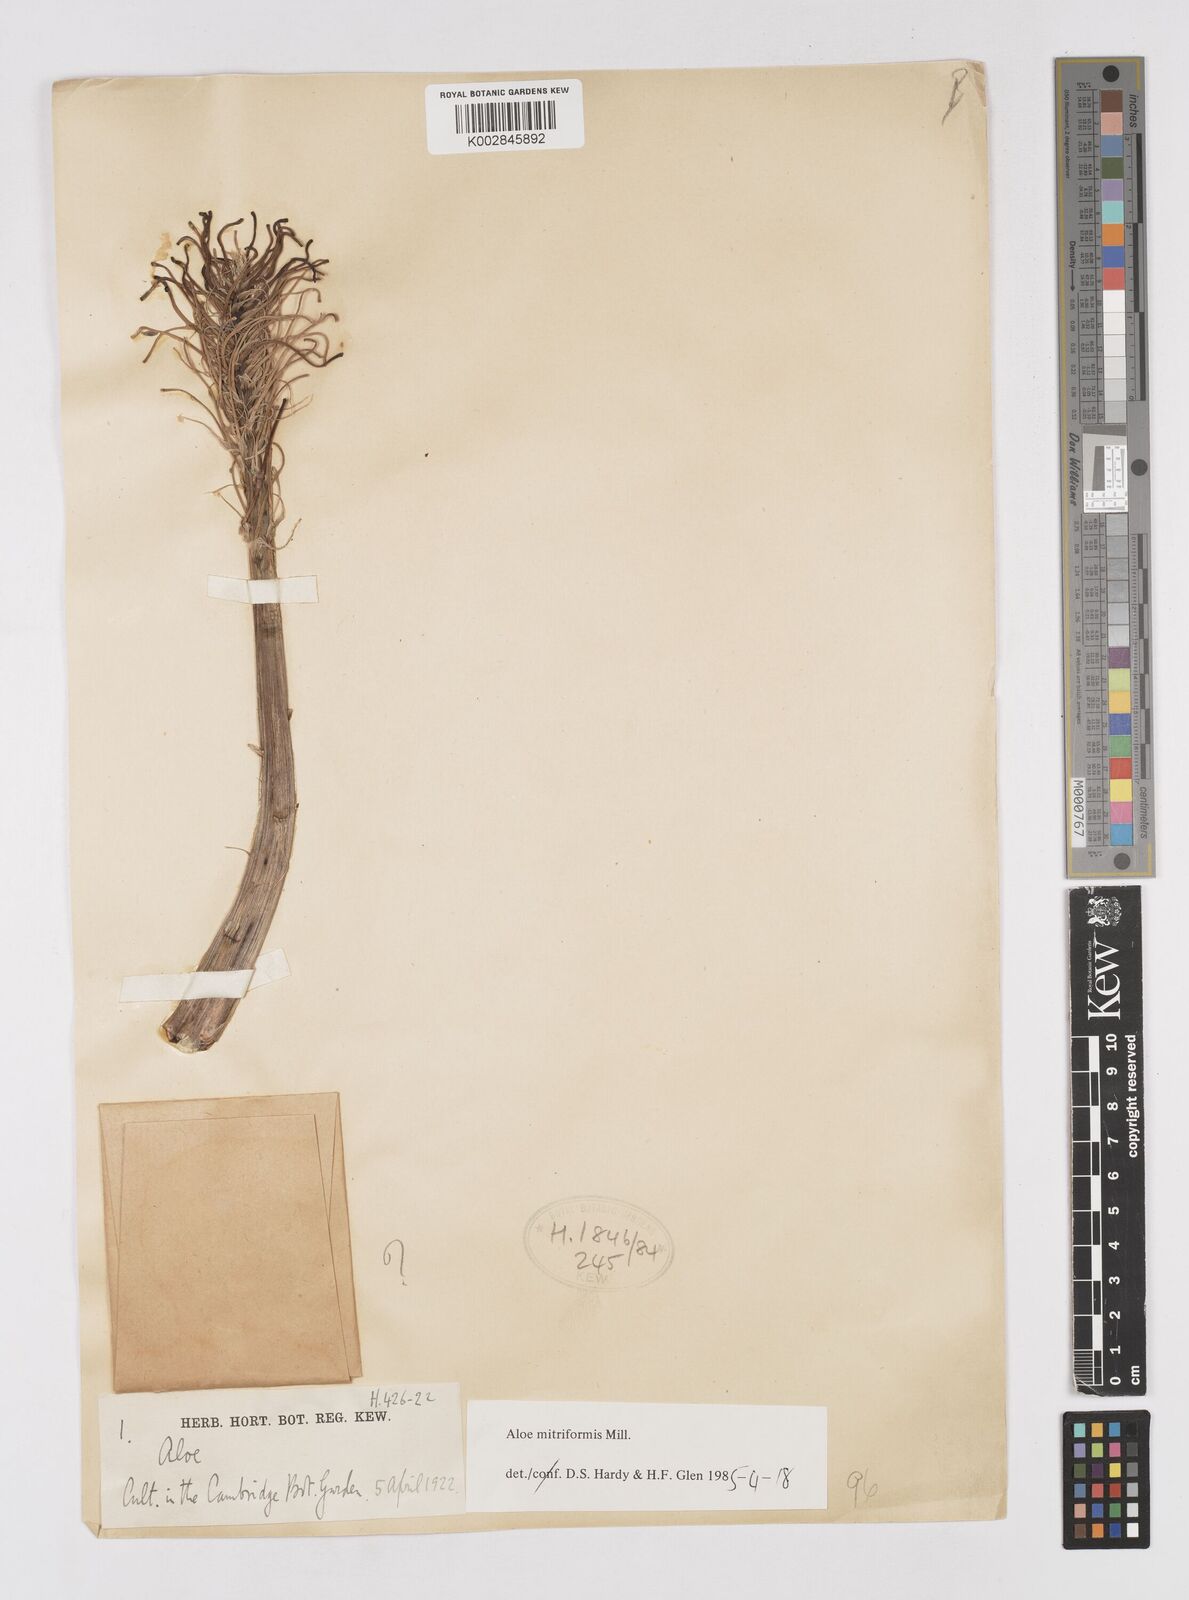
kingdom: Plantae
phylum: Tracheophyta
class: Liliopsida
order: Asparagales
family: Asphodelaceae
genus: Aloe
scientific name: Aloe perfoliata
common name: Mitra aloe
